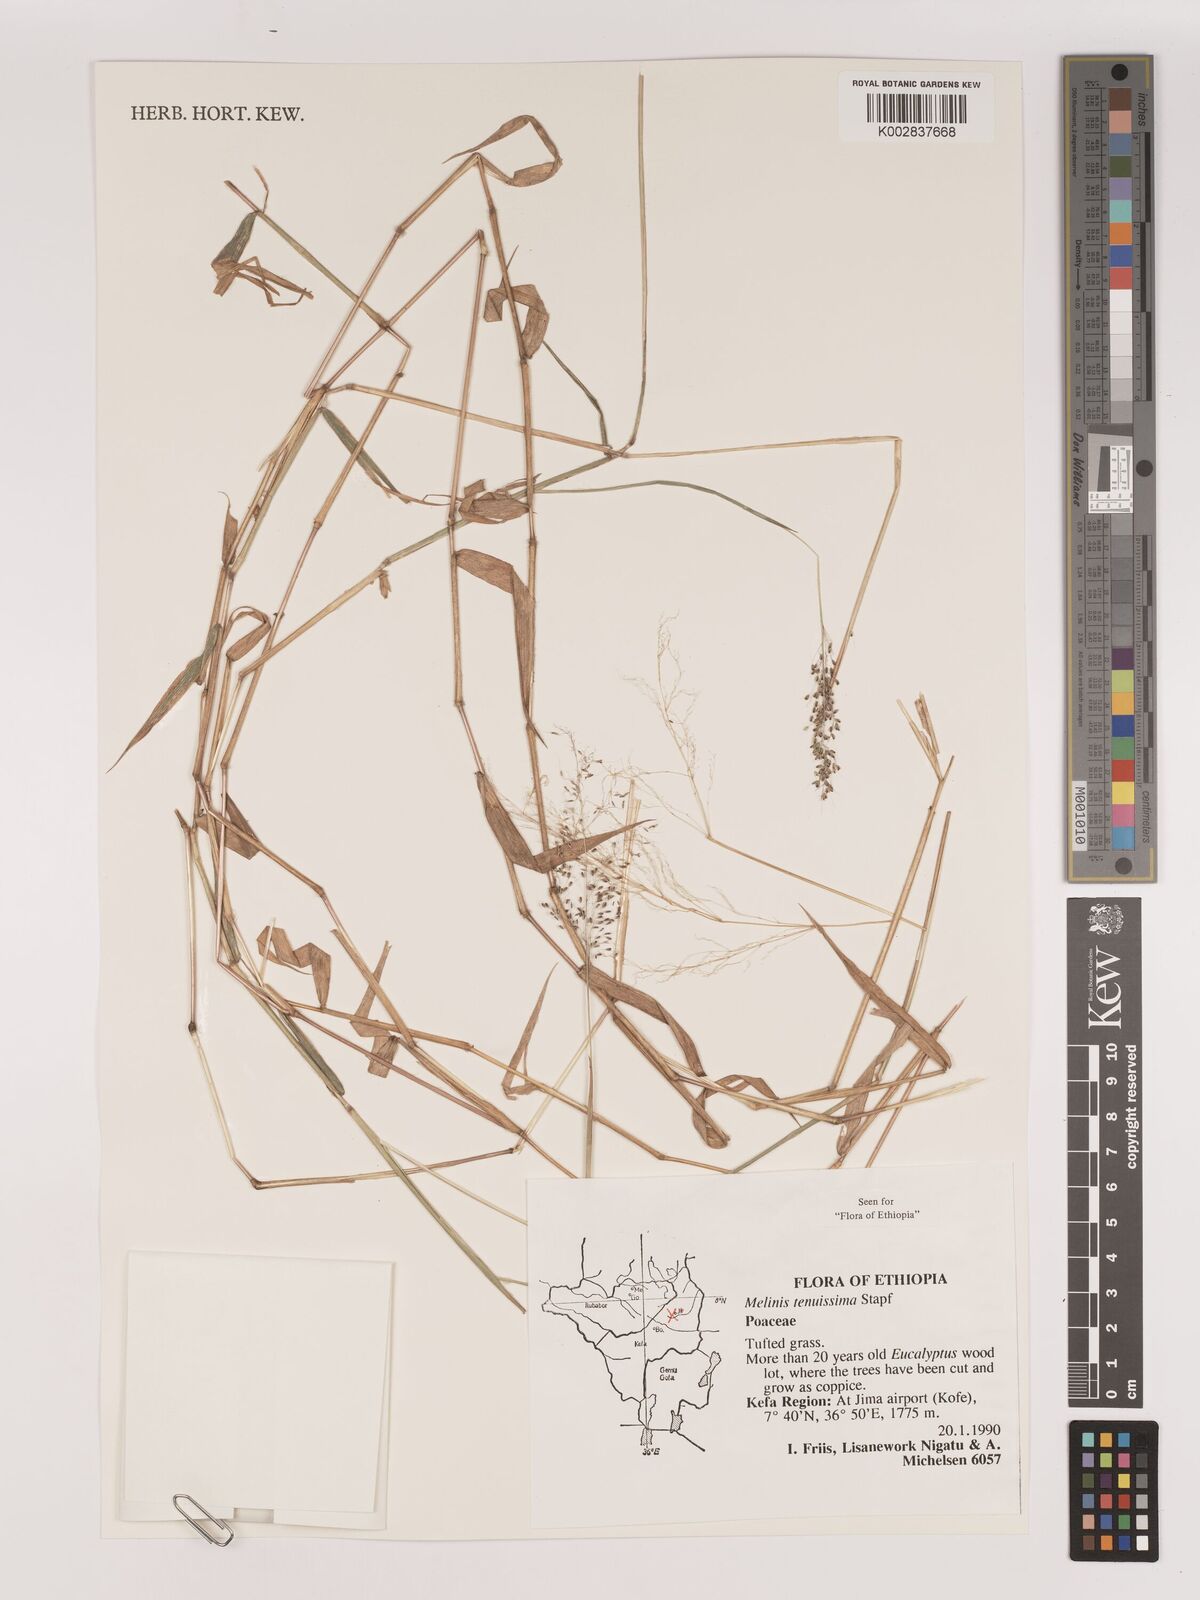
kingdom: Plantae
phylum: Tracheophyta
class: Liliopsida
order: Poales
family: Poaceae
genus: Melinis
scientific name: Melinis tenuissima
